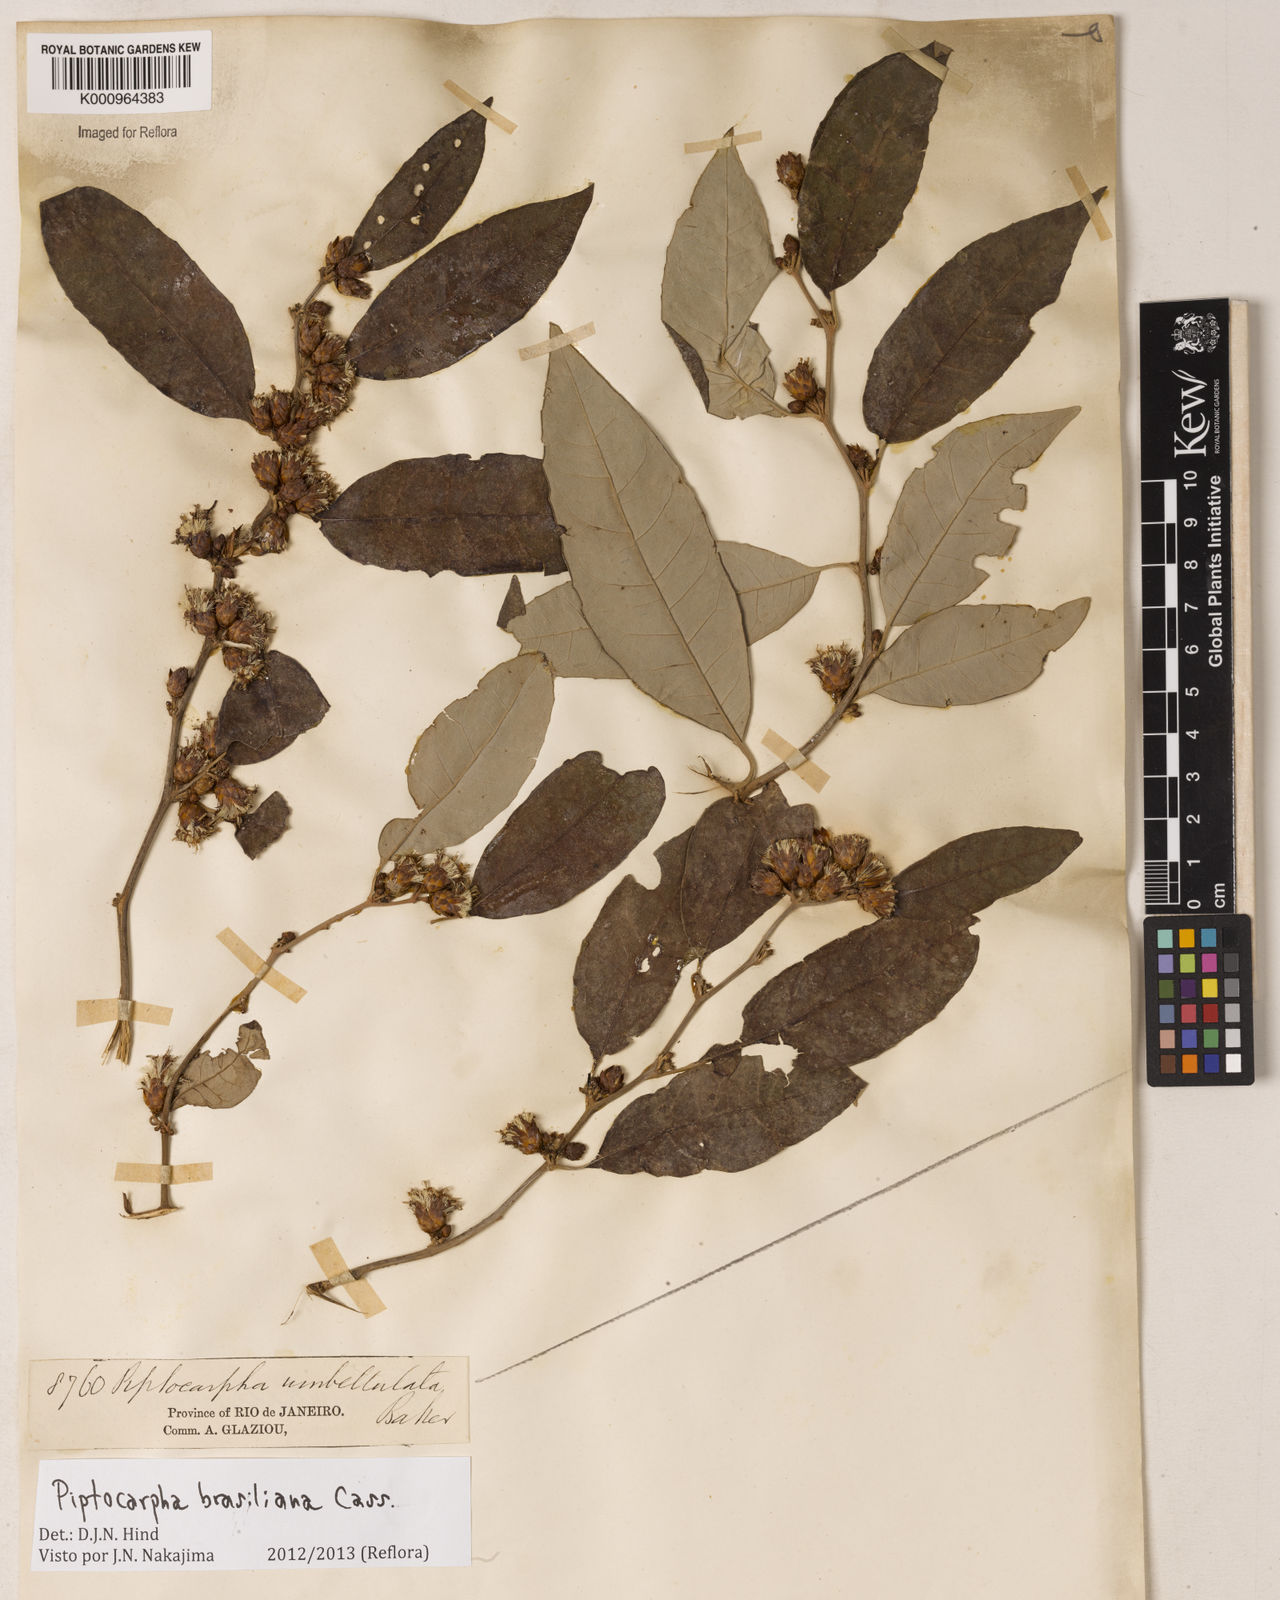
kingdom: Plantae
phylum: Tracheophyta
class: Magnoliopsida
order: Asterales
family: Asteraceae
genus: Piptocarpha
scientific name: Piptocarpha brasiliana
